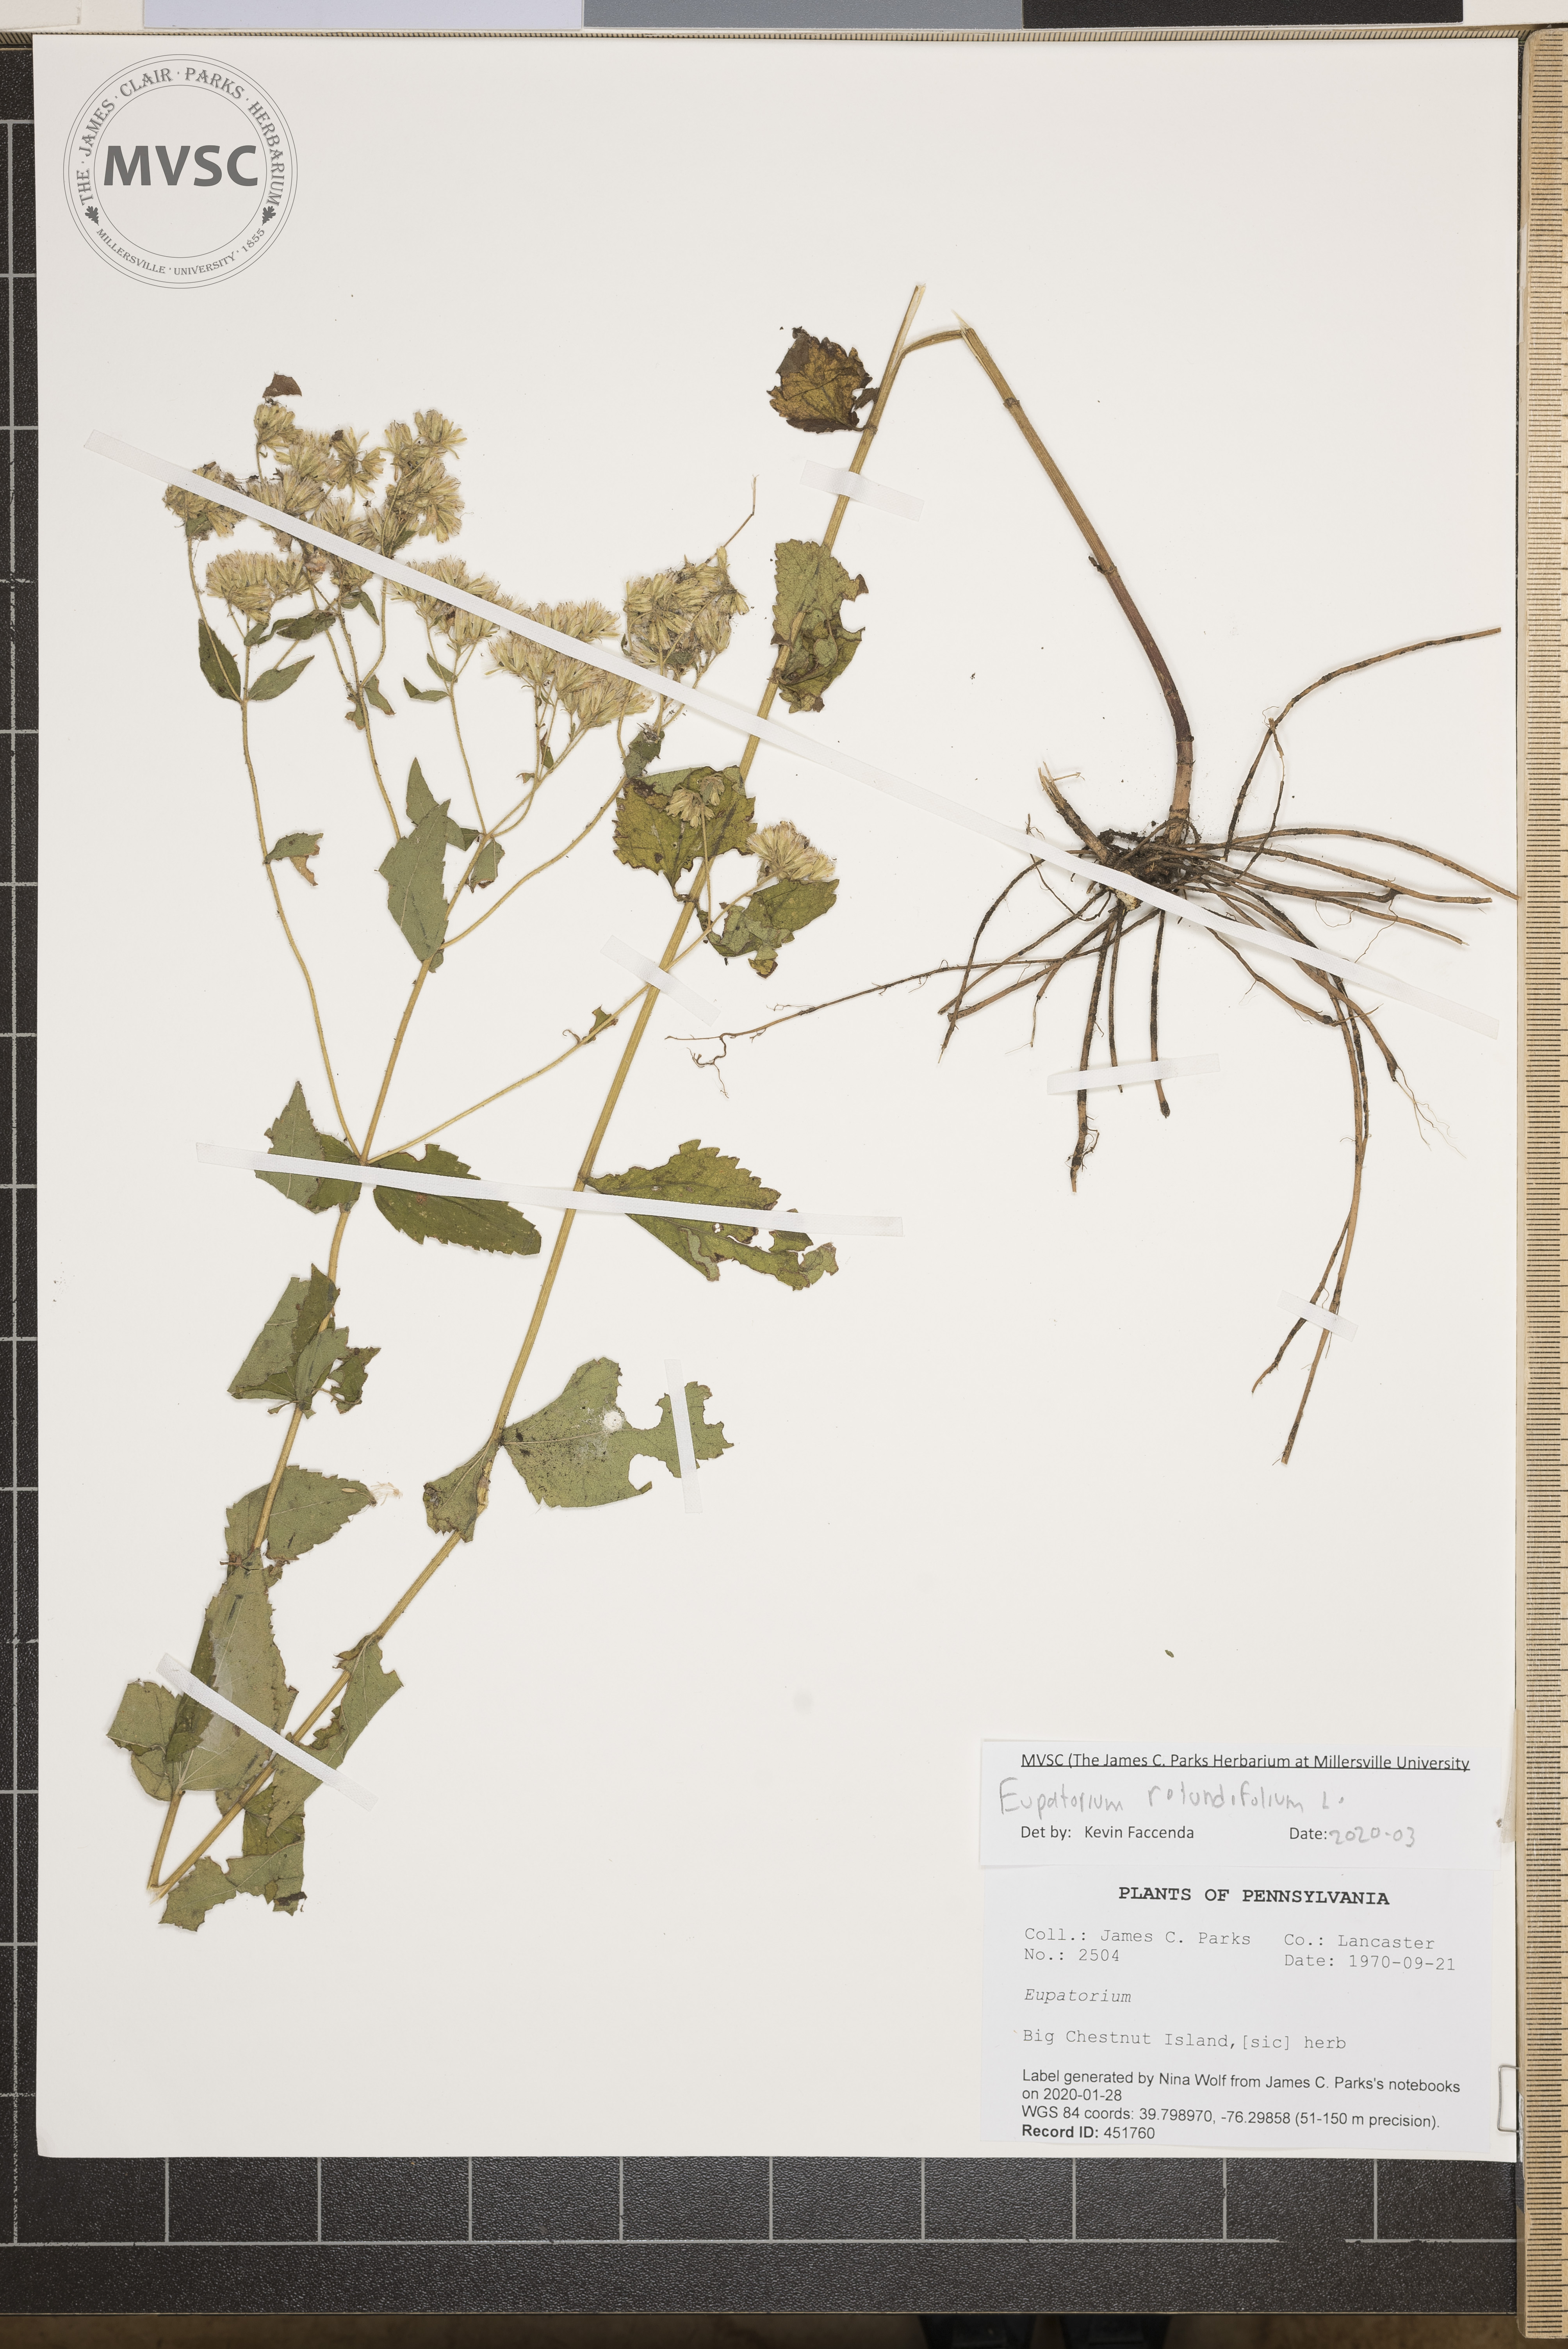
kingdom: Plantae
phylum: Tracheophyta
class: Magnoliopsida
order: Asterales
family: Asteraceae
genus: Eupatorium
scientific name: Eupatorium rotundifolium
